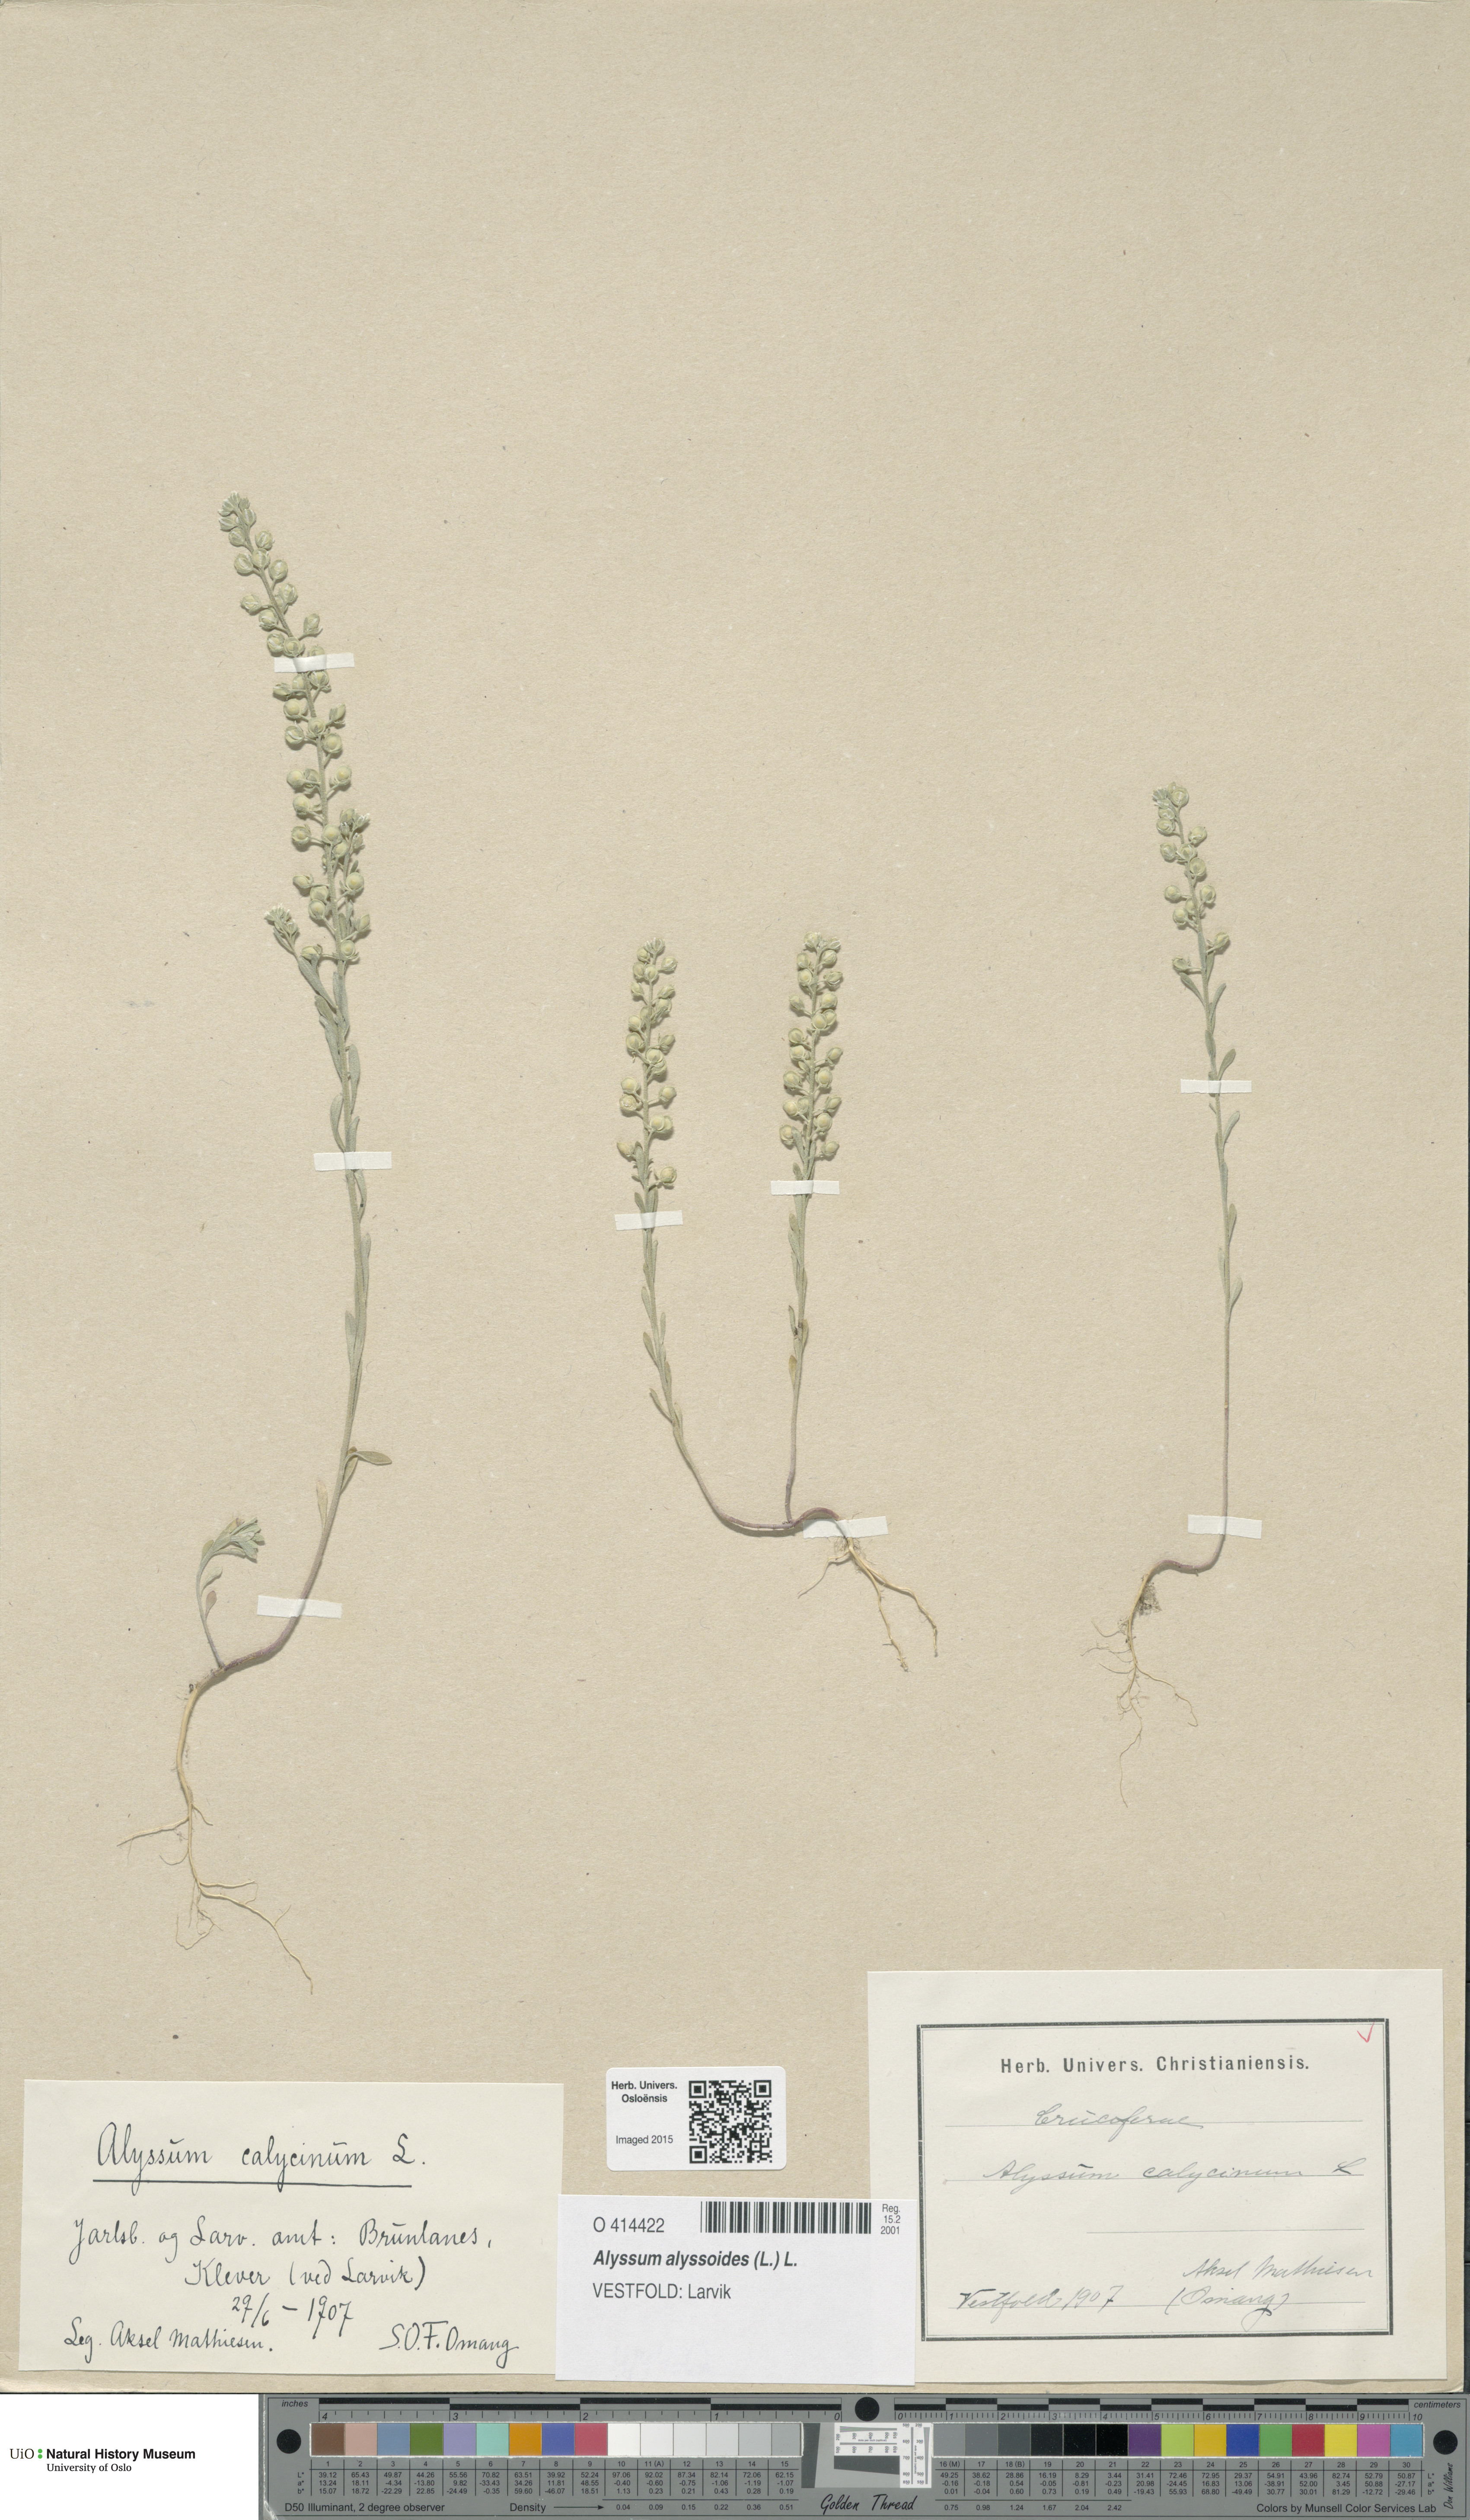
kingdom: Plantae
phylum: Tracheophyta
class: Magnoliopsida
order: Brassicales
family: Brassicaceae
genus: Alyssum
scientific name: Alyssum alyssoides
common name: Small alison
